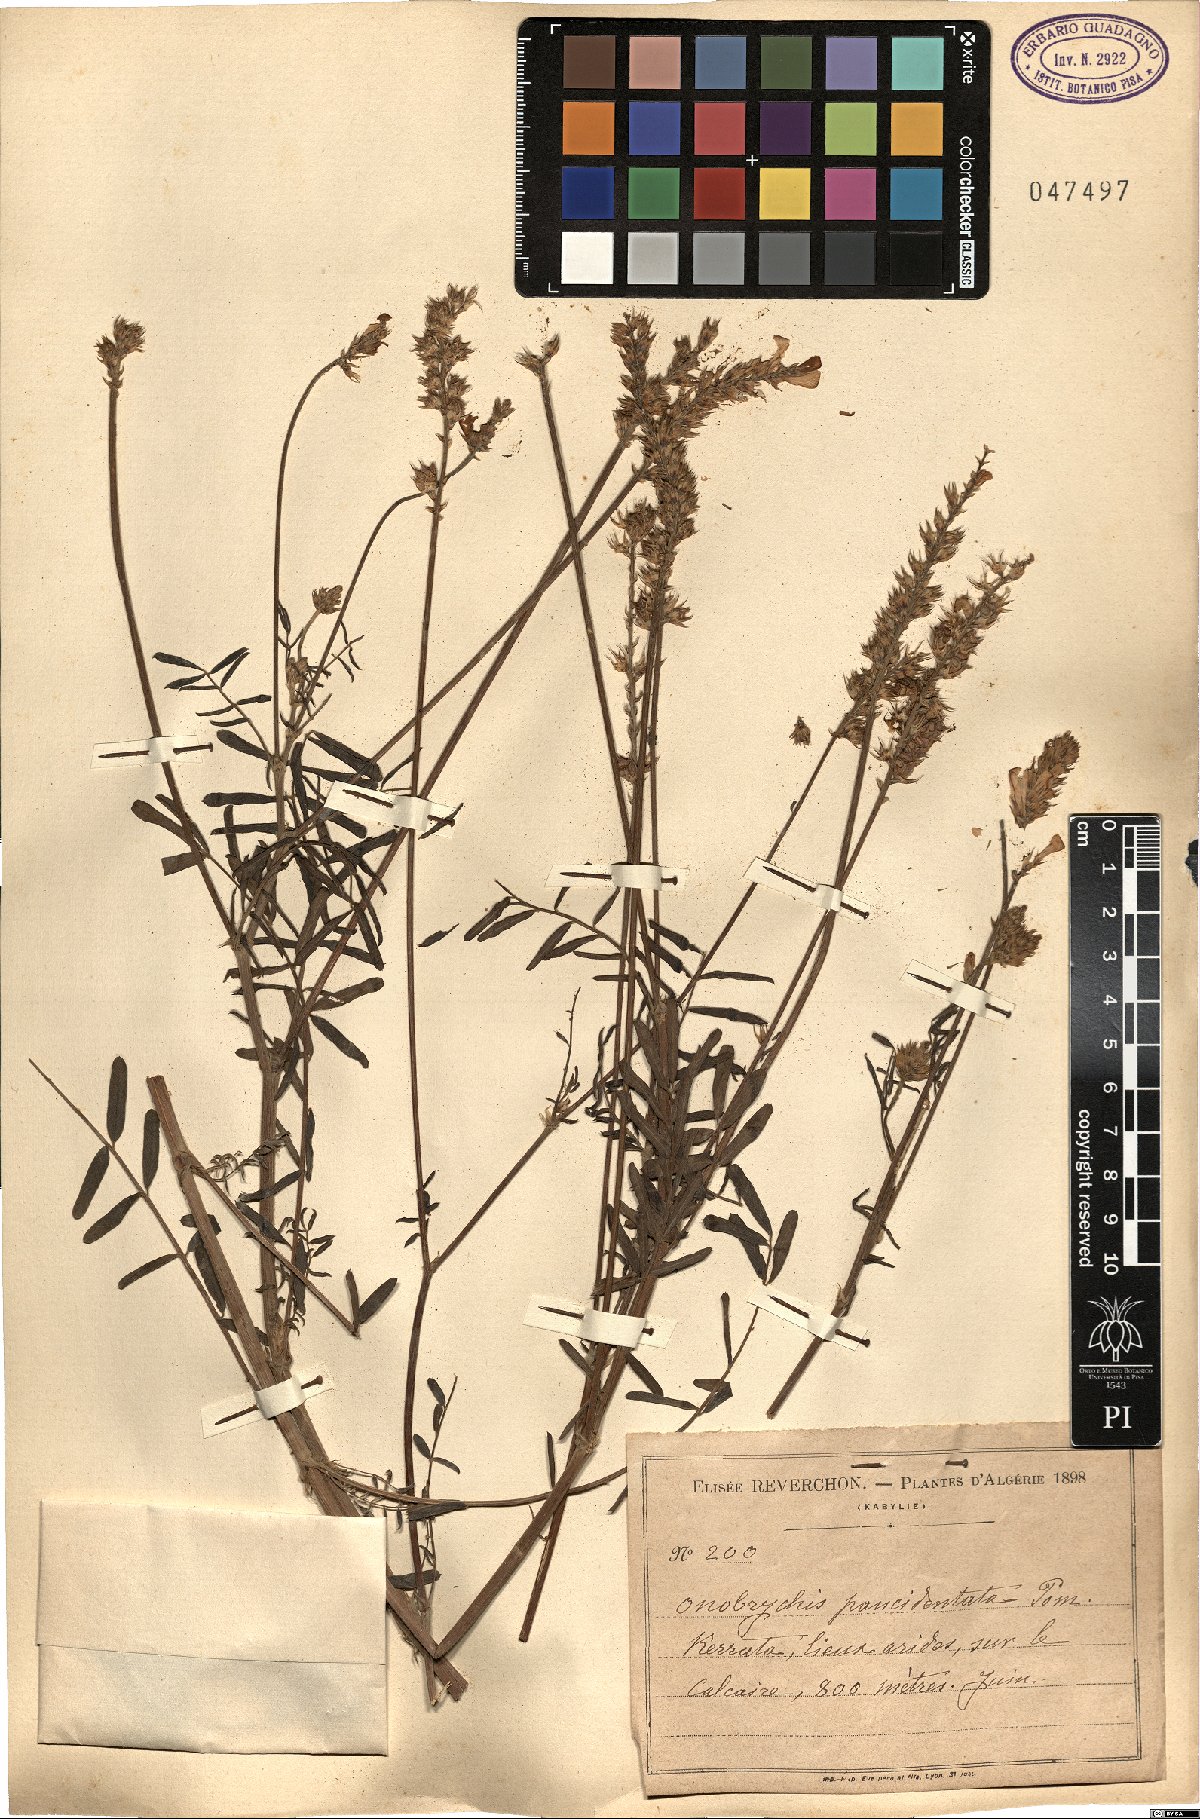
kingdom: Plantae
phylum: Tracheophyta
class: Magnoliopsida
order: Fabales
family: Fabaceae
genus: Onobrychis
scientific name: Onobrychis alba
